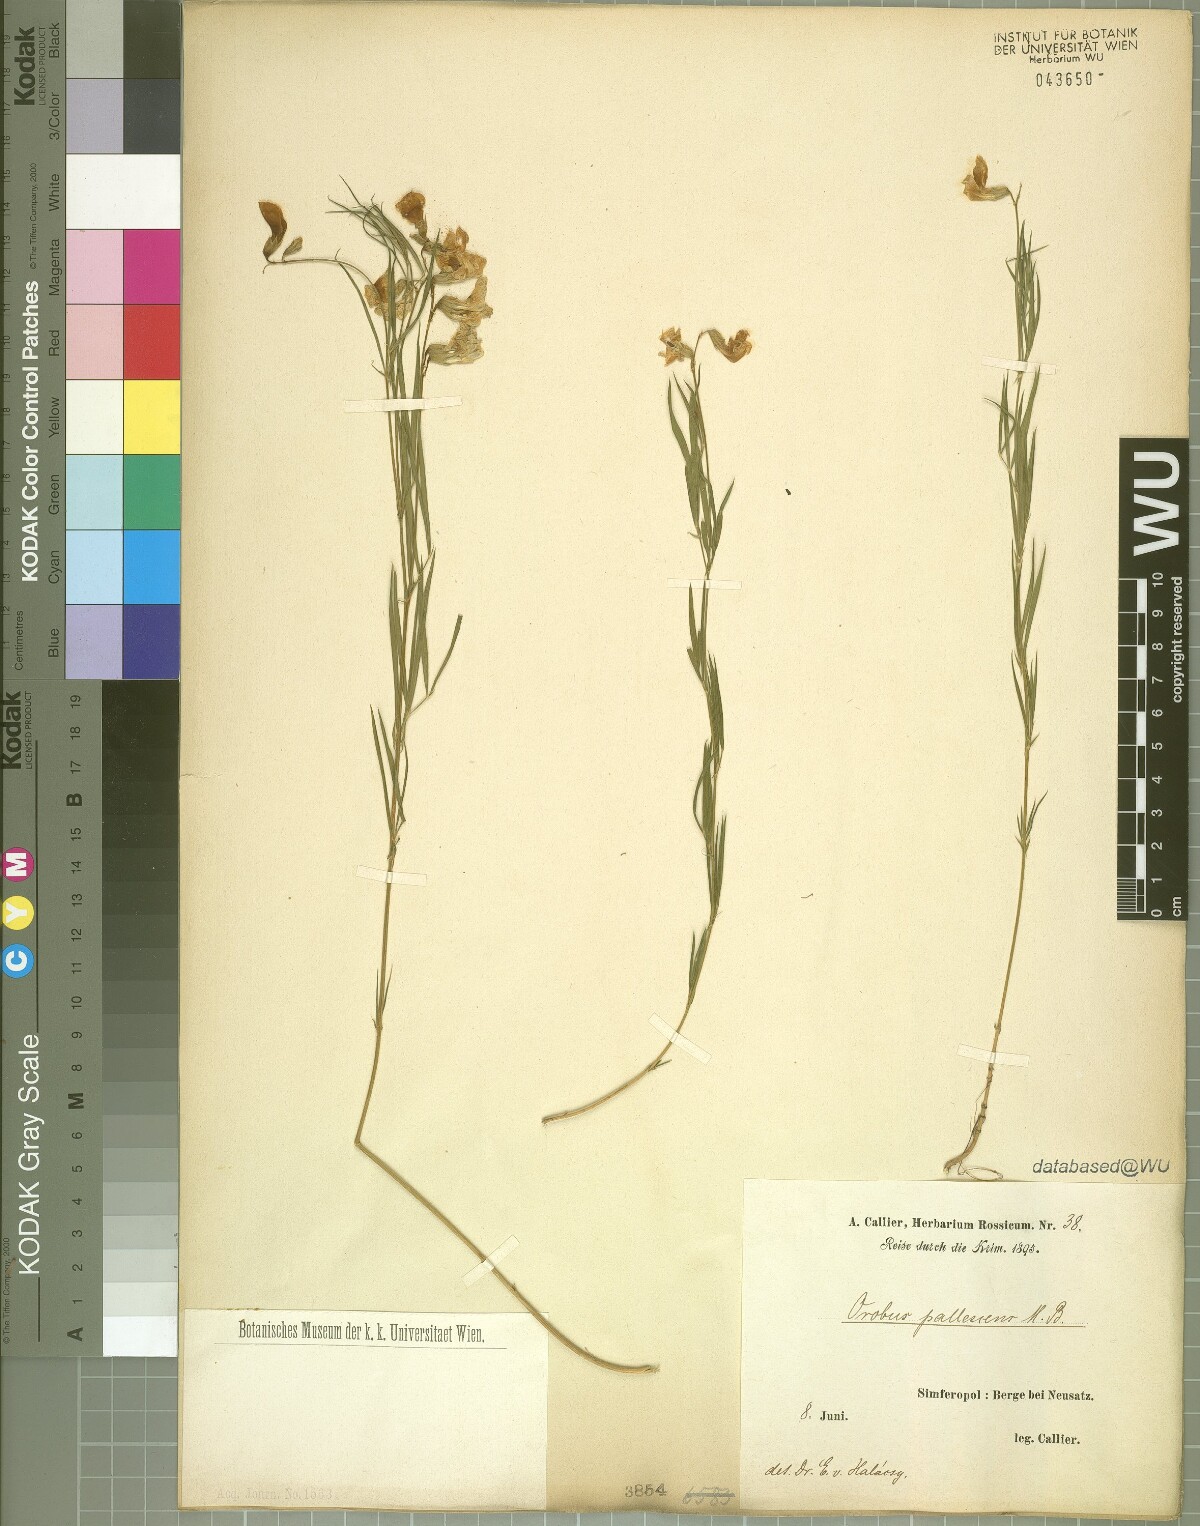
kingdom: Plantae
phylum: Tracheophyta
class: Magnoliopsida
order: Fabales
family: Fabaceae
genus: Lathyrus
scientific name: Lathyrus pallescens
